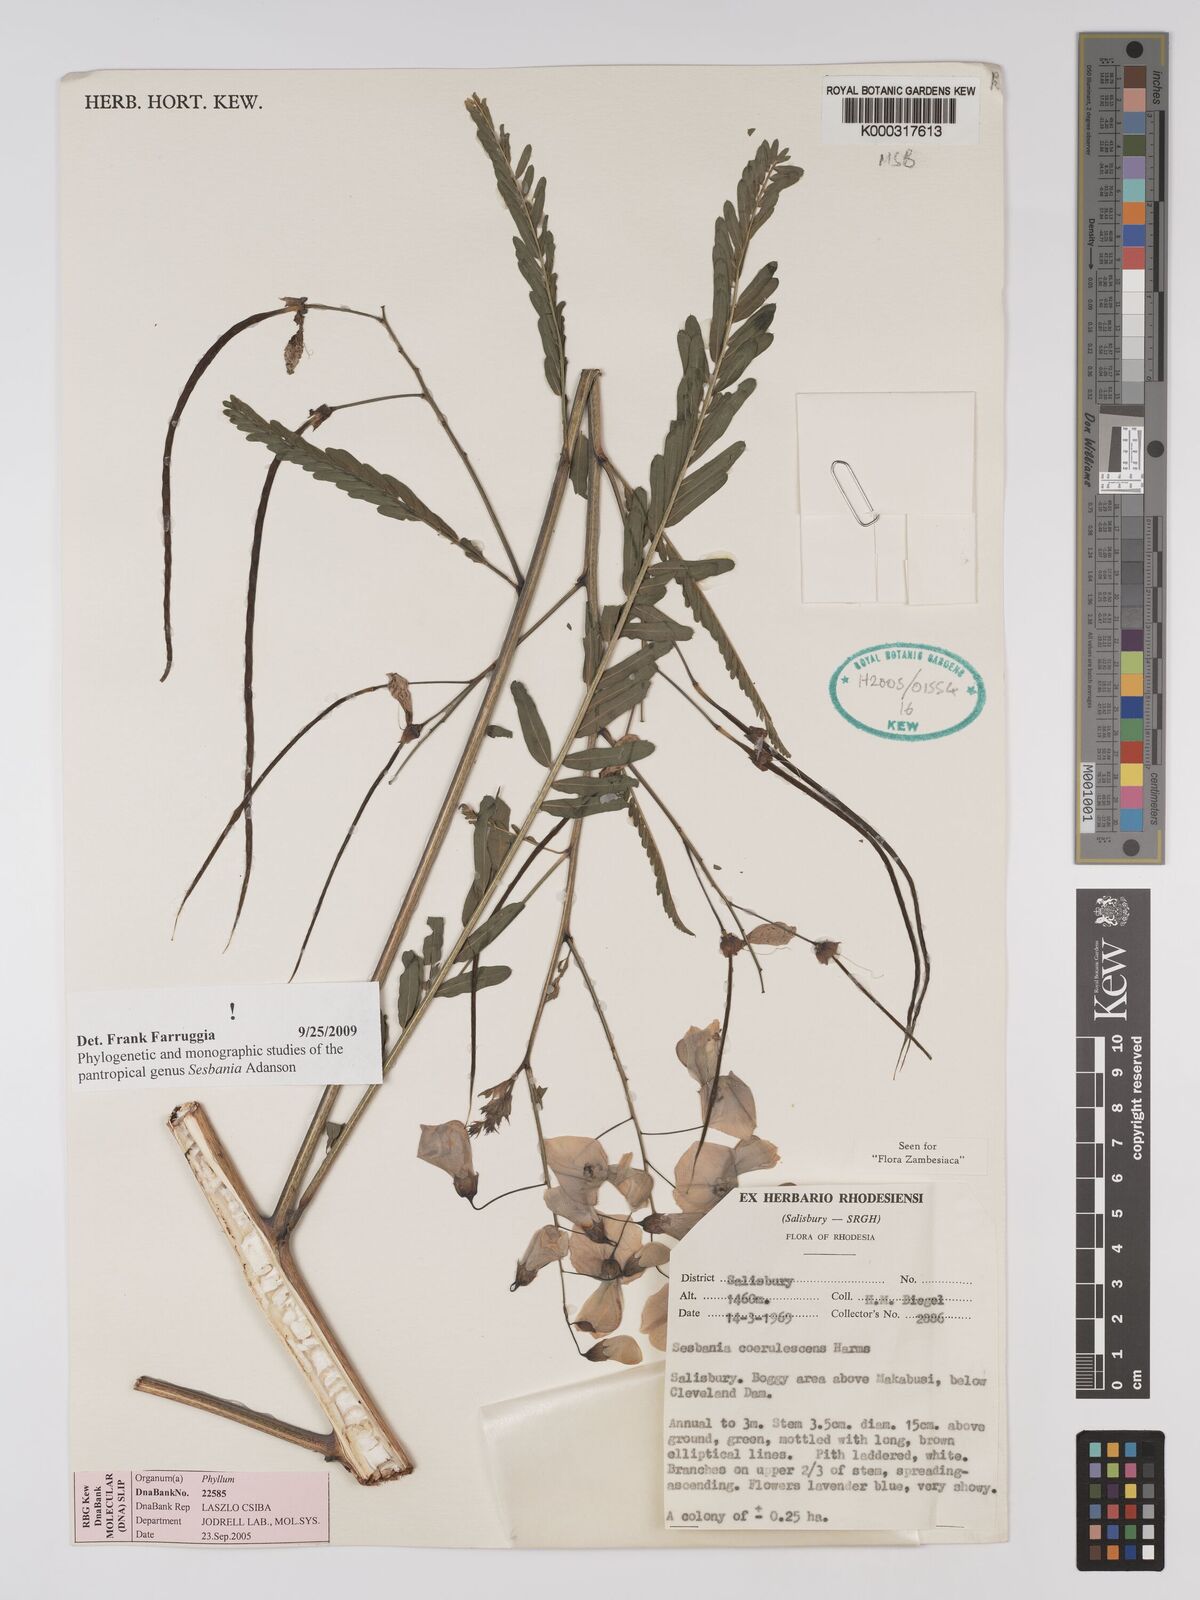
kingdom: Plantae
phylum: Tracheophyta
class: Magnoliopsida
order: Fabales
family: Fabaceae
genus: Sesbania
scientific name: Sesbania coerulescens
